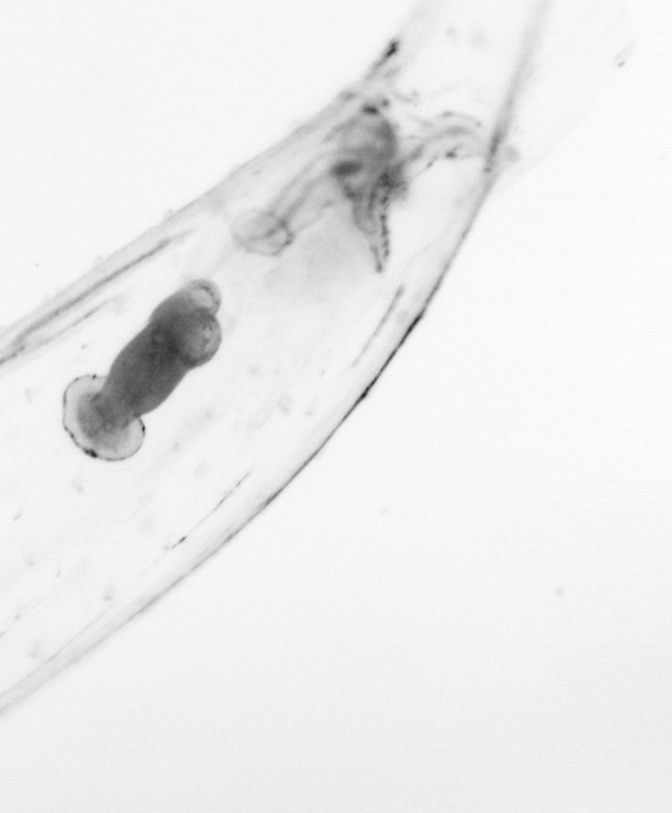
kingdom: Animalia
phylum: Chaetognatha
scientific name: Chaetognatha
